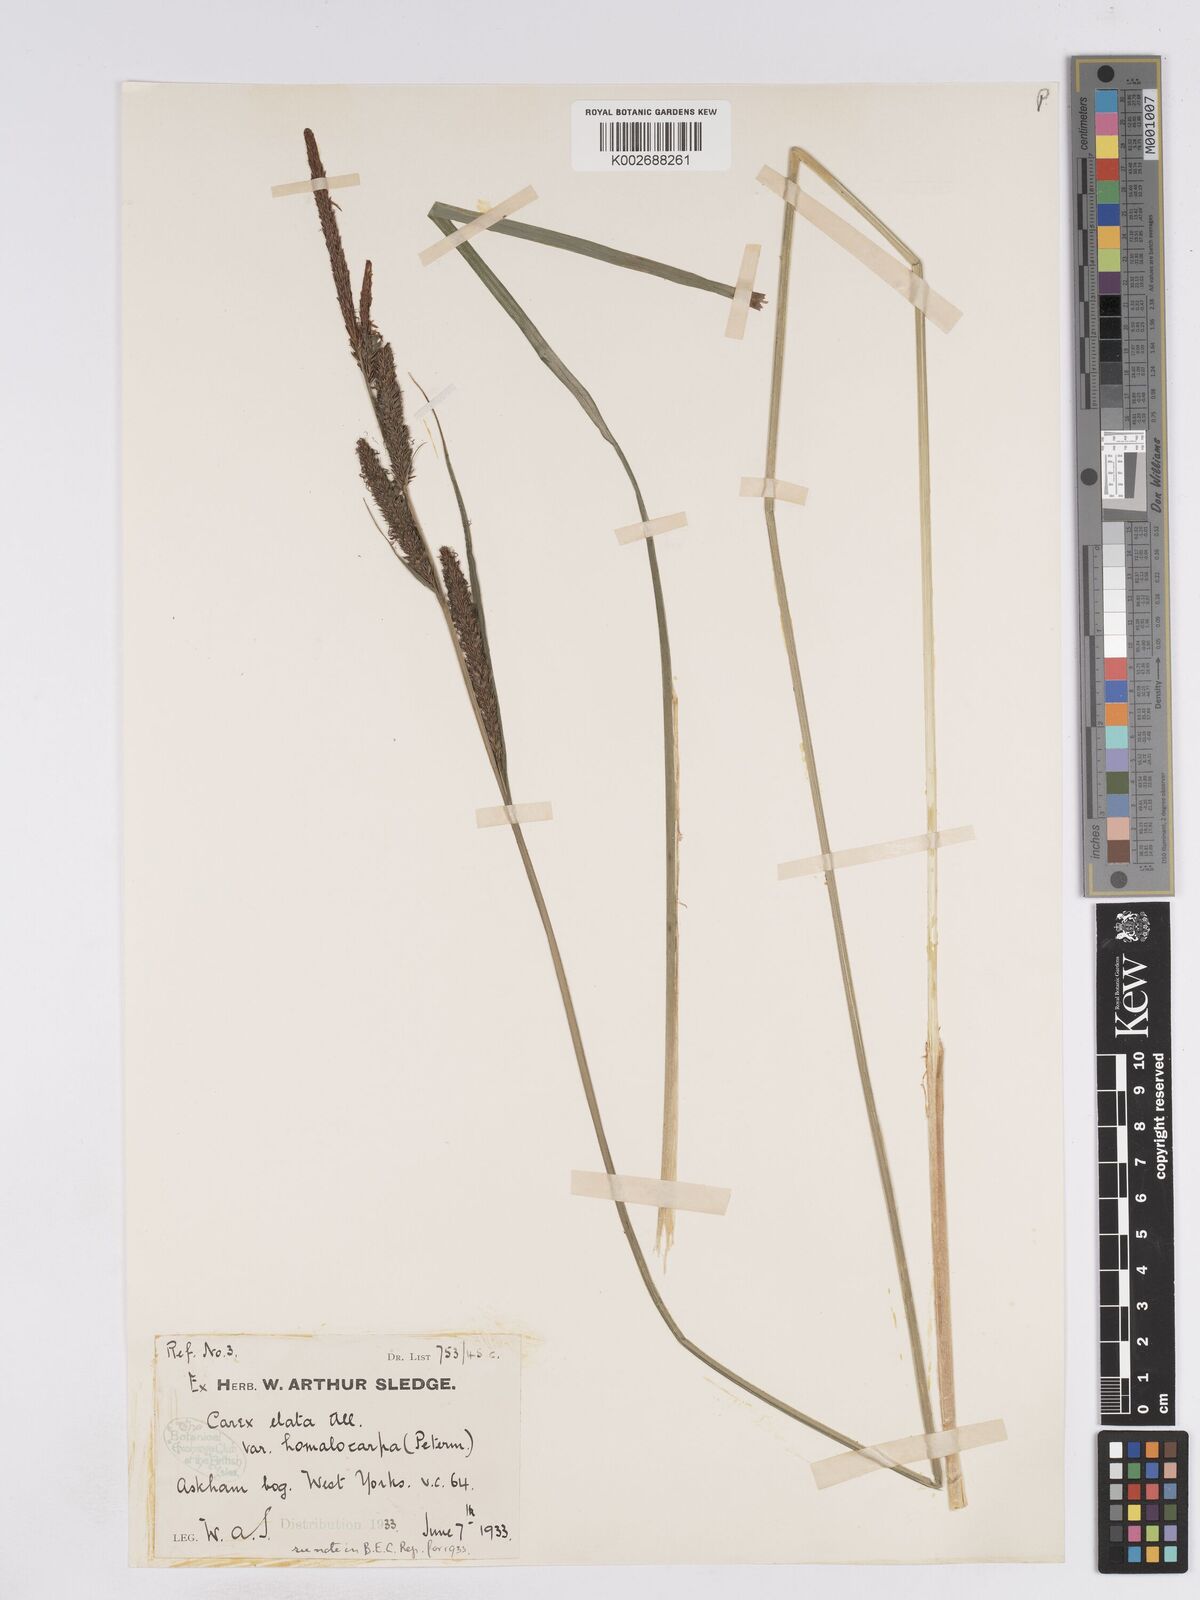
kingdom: Plantae
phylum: Tracheophyta
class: Liliopsida
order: Poales
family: Cyperaceae
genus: Carex
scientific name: Carex elata
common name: Tufted sedge
